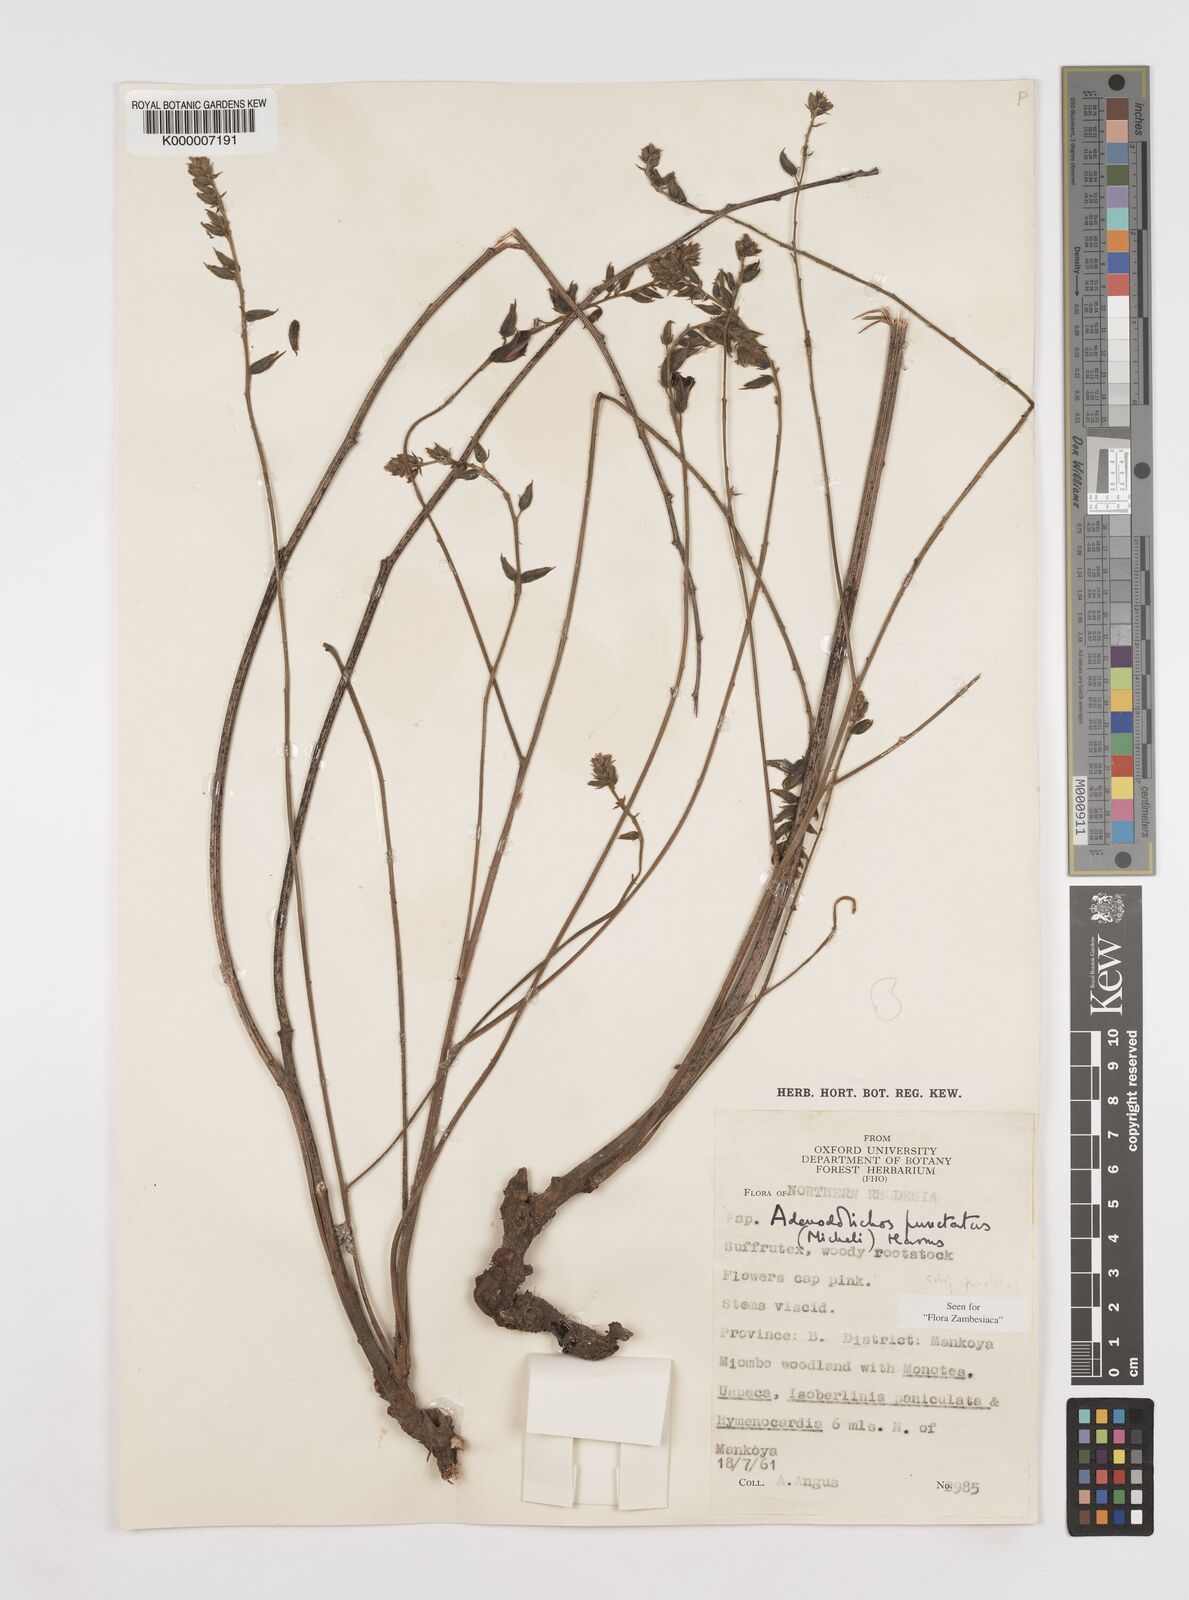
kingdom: Plantae
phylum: Tracheophyta
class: Magnoliopsida
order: Fabales
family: Fabaceae
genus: Adenodolichos
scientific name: Adenodolichos punctatus
